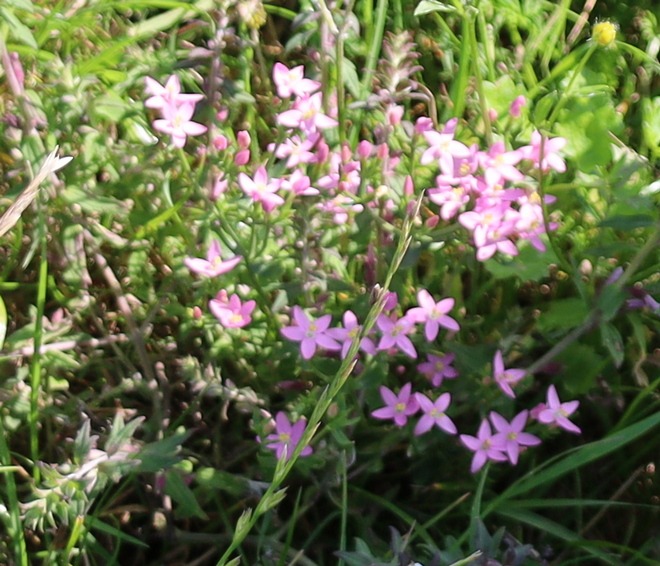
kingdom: Plantae
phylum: Tracheophyta
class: Magnoliopsida
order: Gentianales
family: Gentianaceae
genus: Centaurium
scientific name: Centaurium
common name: Tusindgyldenslægten
